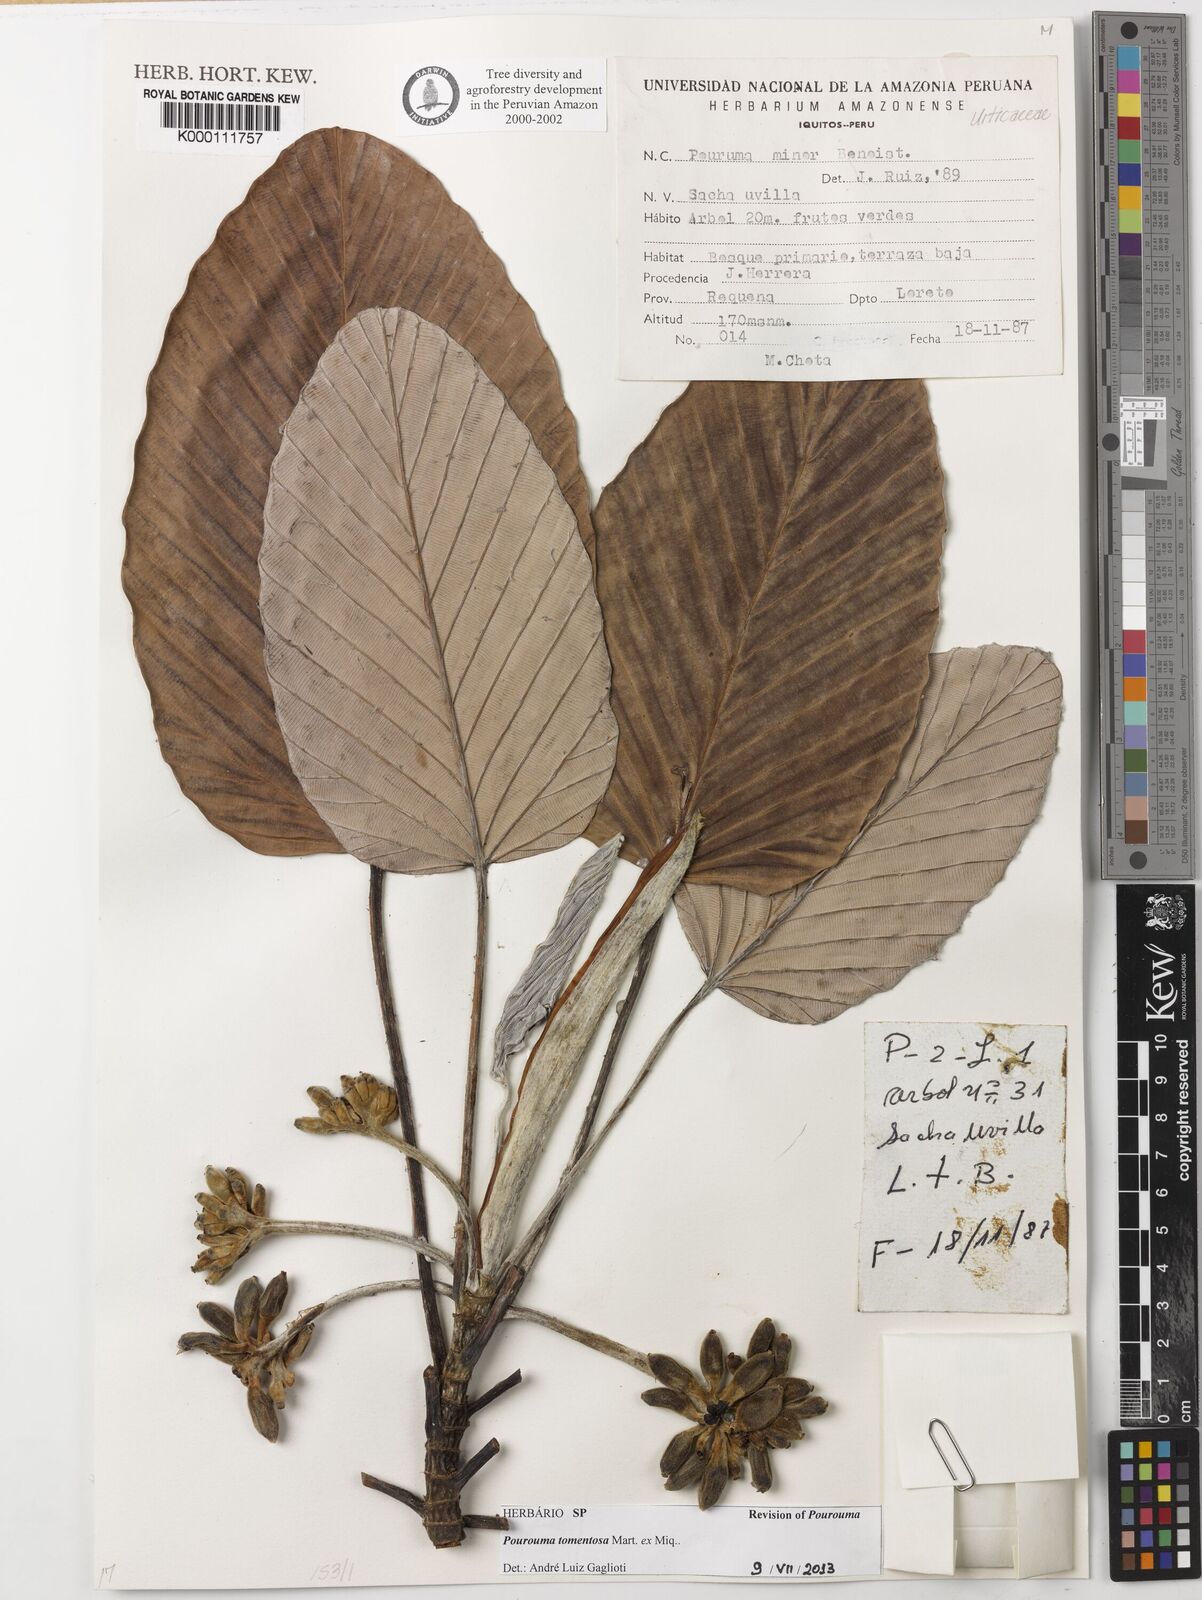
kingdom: Plantae
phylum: Tracheophyta
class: Magnoliopsida
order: Rosales
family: Urticaceae
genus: Pourouma
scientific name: Pourouma tomentosa
